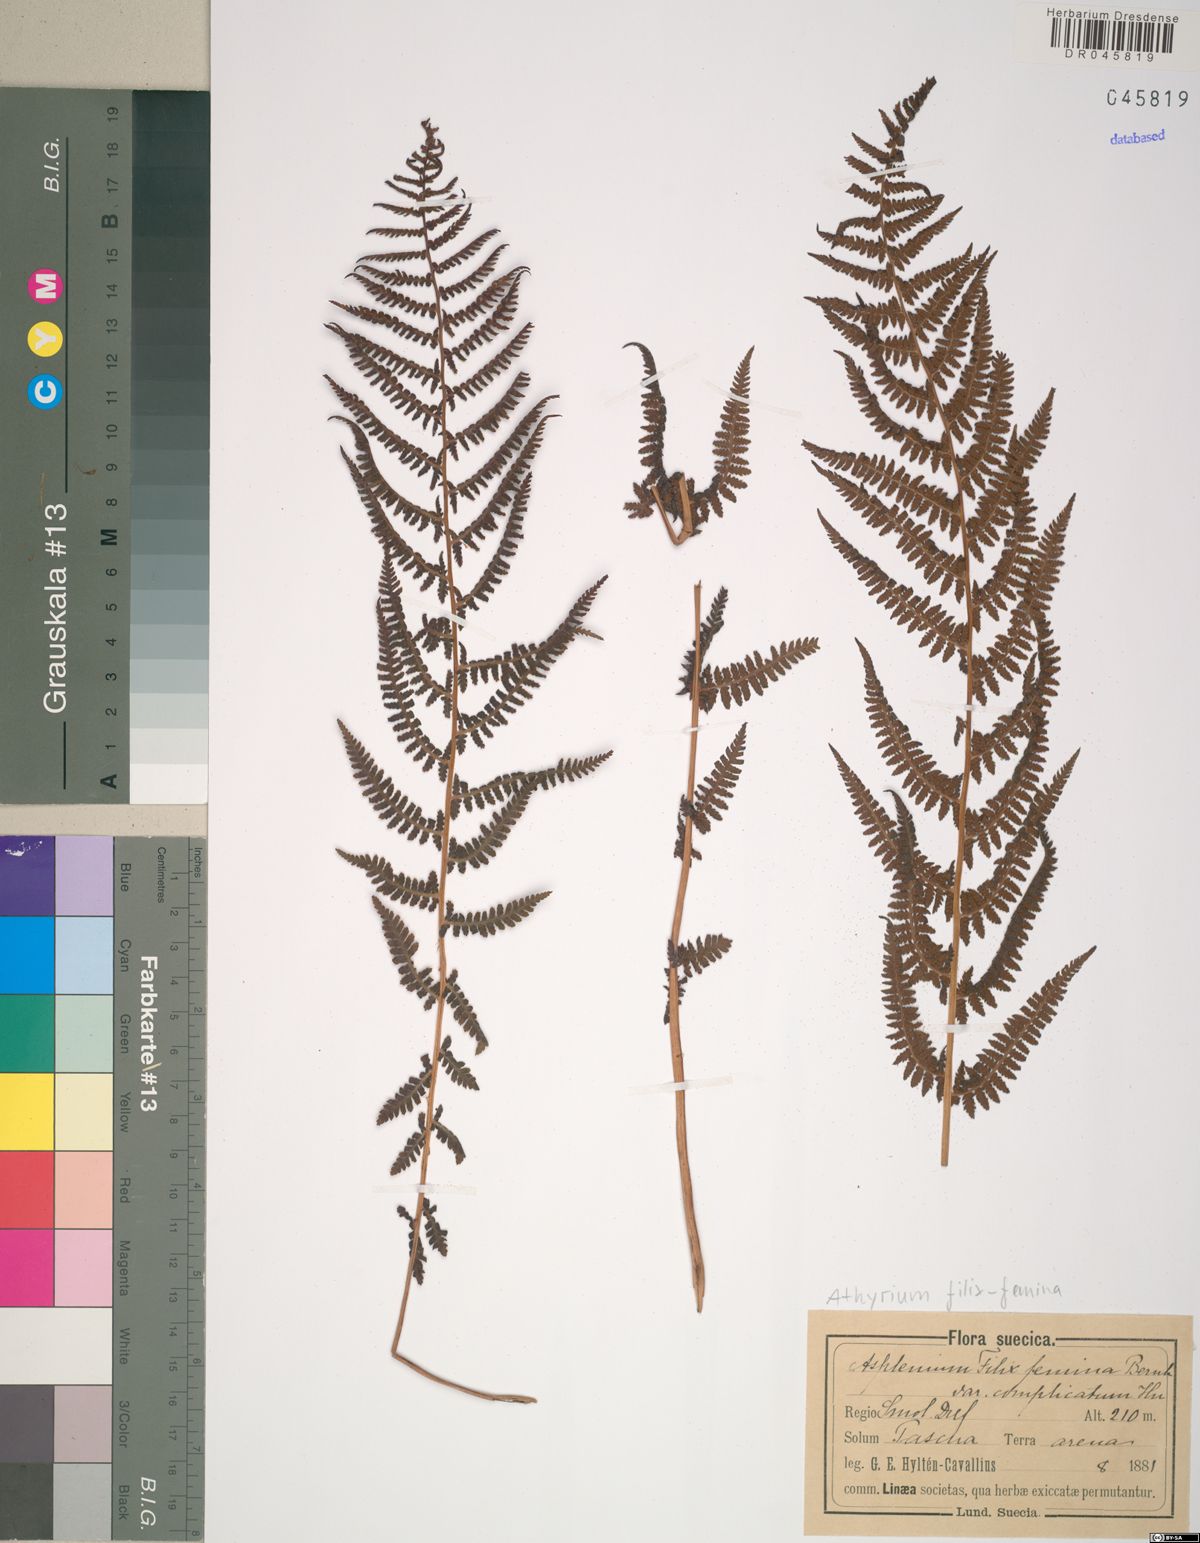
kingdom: Plantae
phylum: Tracheophyta
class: Polypodiopsida
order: Polypodiales
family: Athyriaceae
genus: Athyrium
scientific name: Athyrium filix-femina
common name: Lady fern
